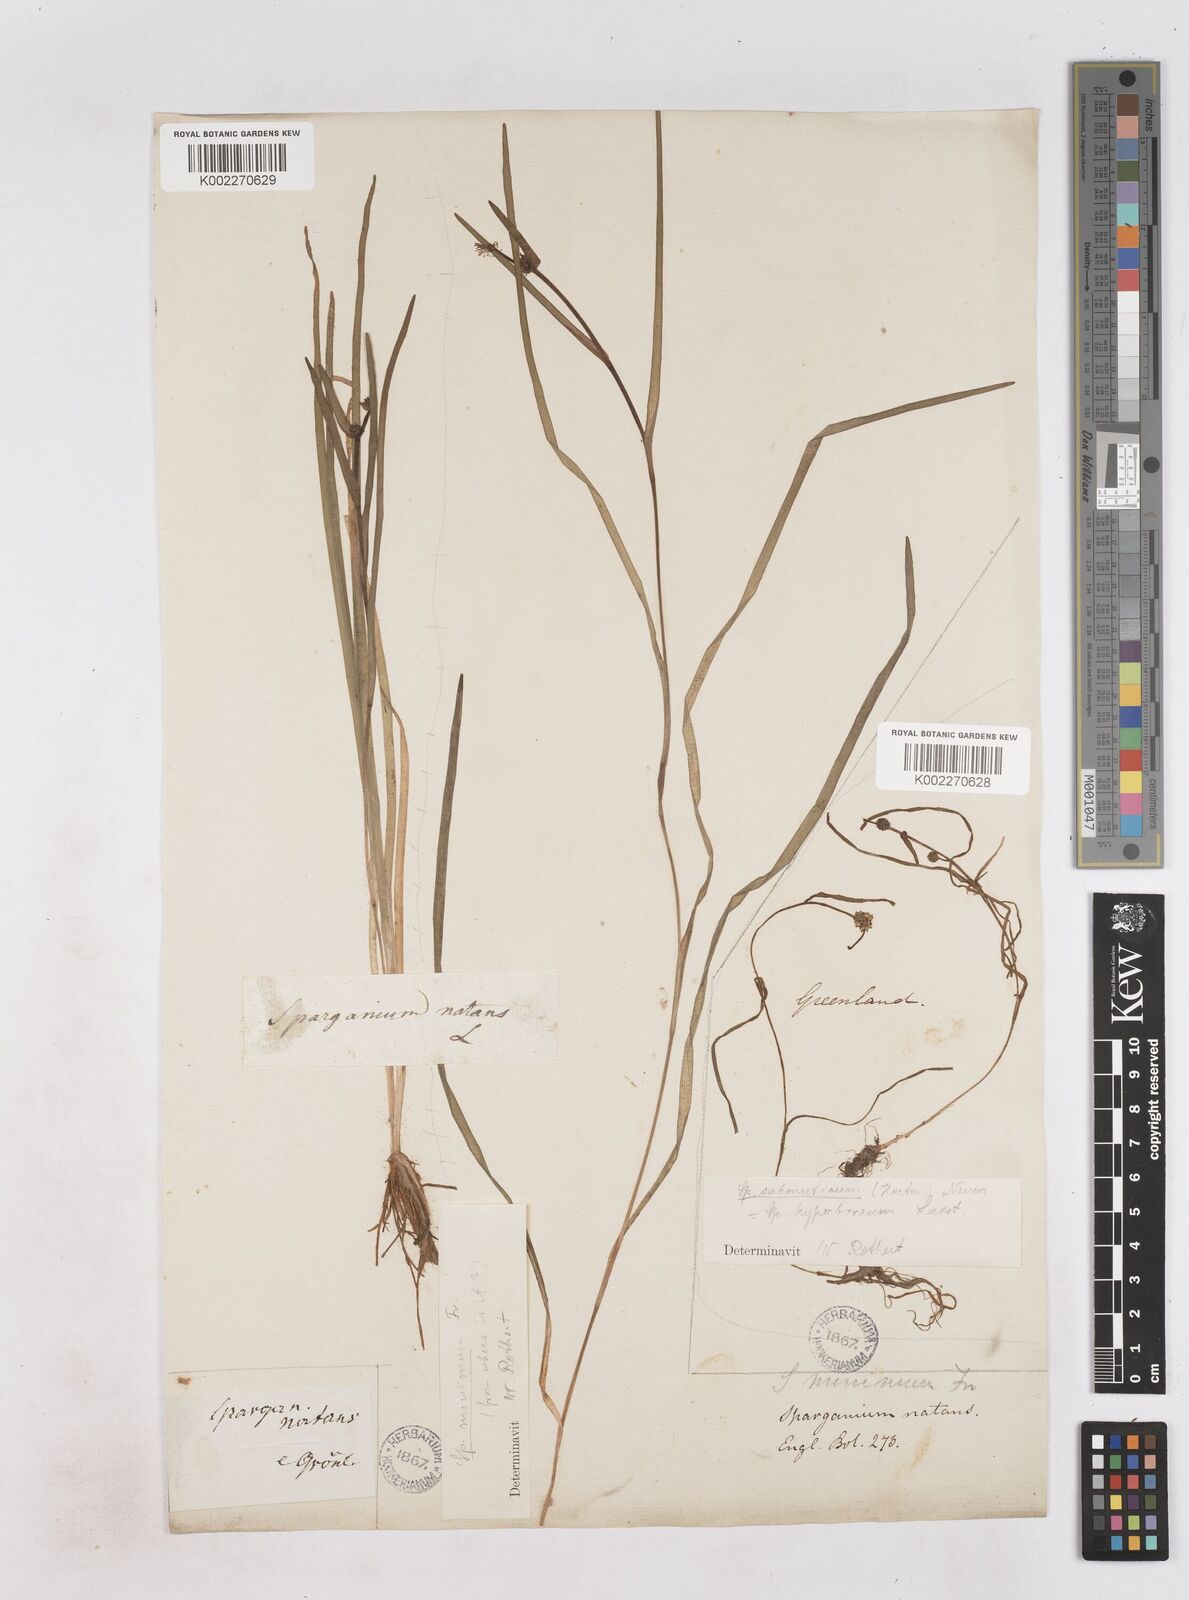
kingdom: Plantae
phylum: Tracheophyta
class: Liliopsida
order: Poales
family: Typhaceae
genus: Sparganium
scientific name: Sparganium hyperboreum
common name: Arctic burreed
